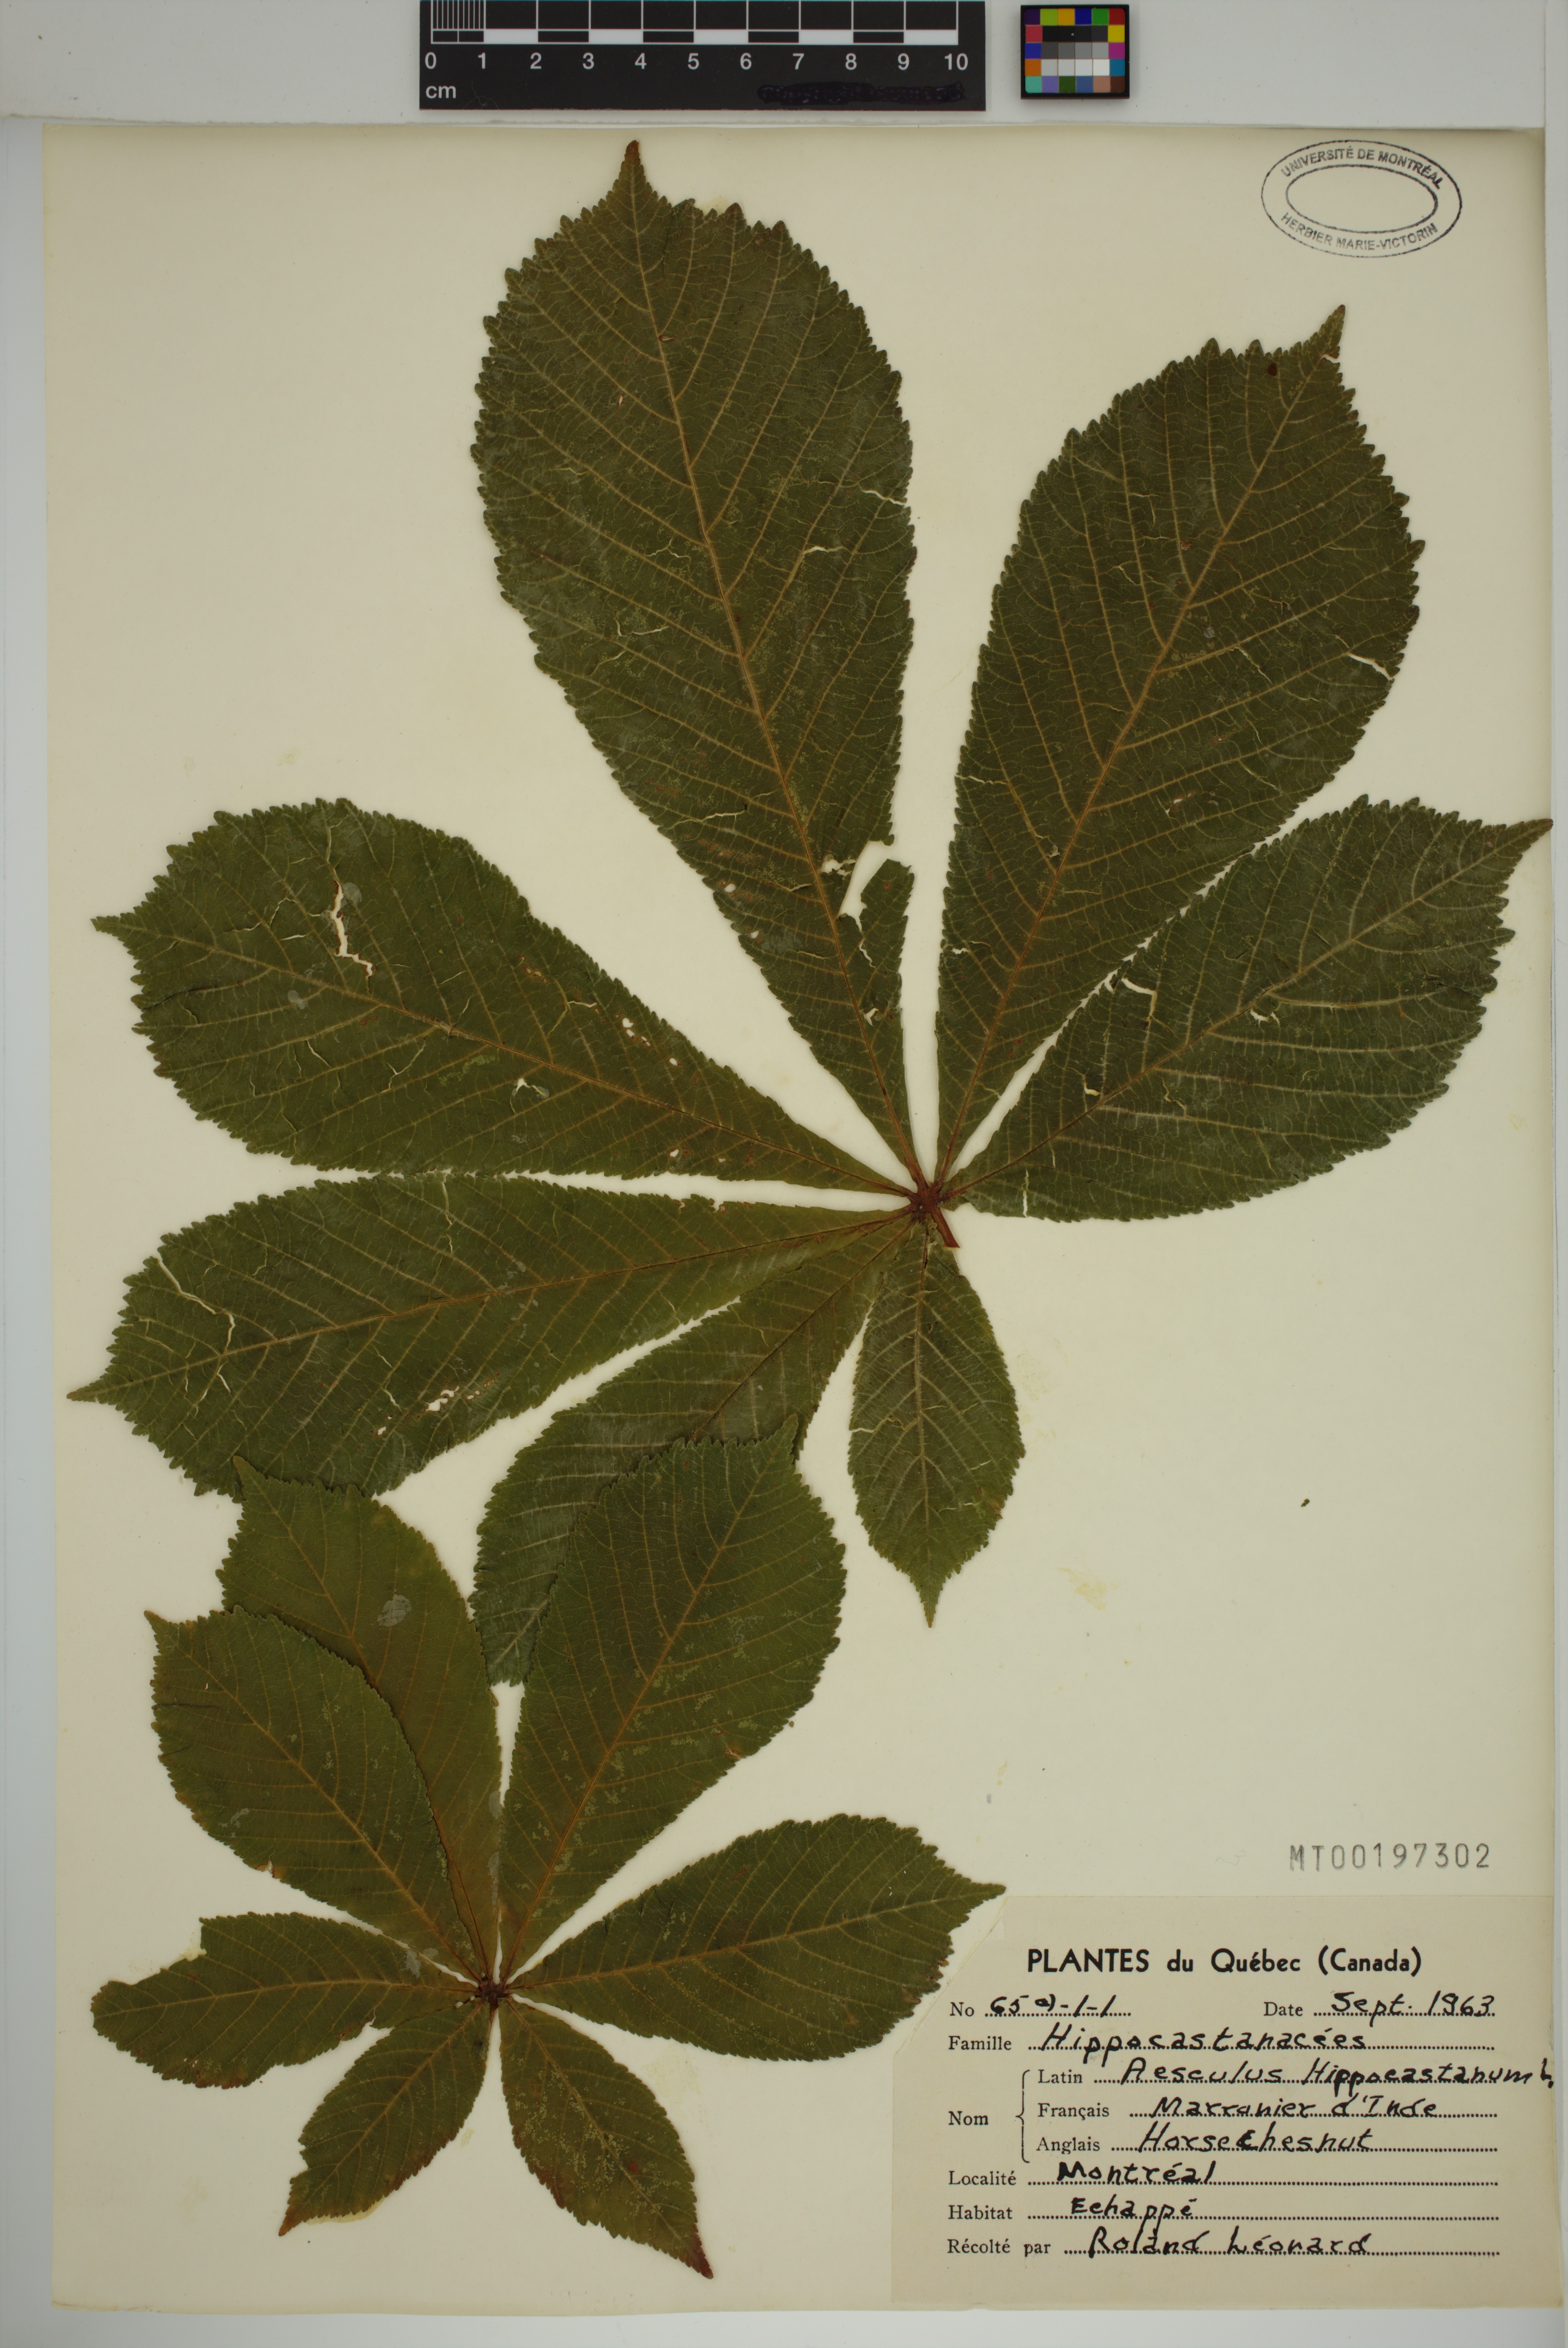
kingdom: Plantae
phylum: Tracheophyta
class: Magnoliopsida
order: Sapindales
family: Sapindaceae
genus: Aesculus
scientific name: Aesculus hippocastanum
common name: Horse-chestnut
